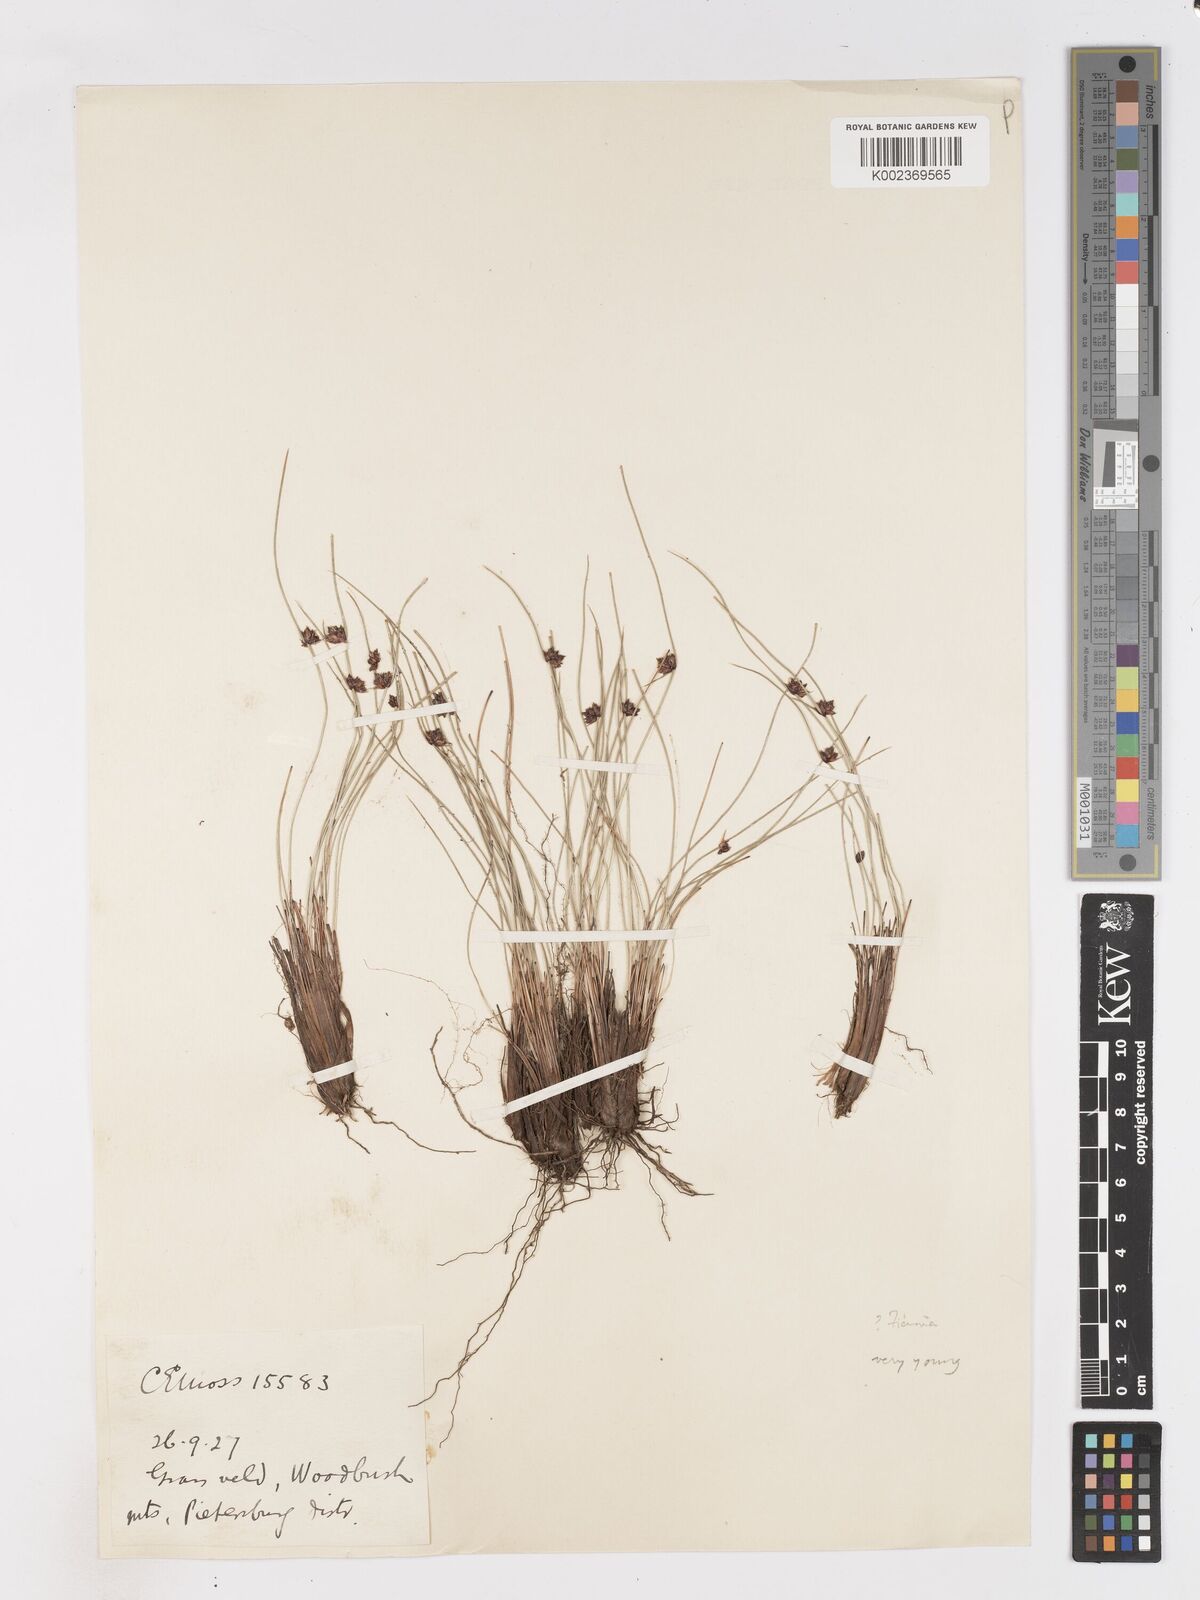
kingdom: Plantae
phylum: Tracheophyta
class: Liliopsida
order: Poales
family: Cyperaceae
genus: Isolepis
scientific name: Isolepis
